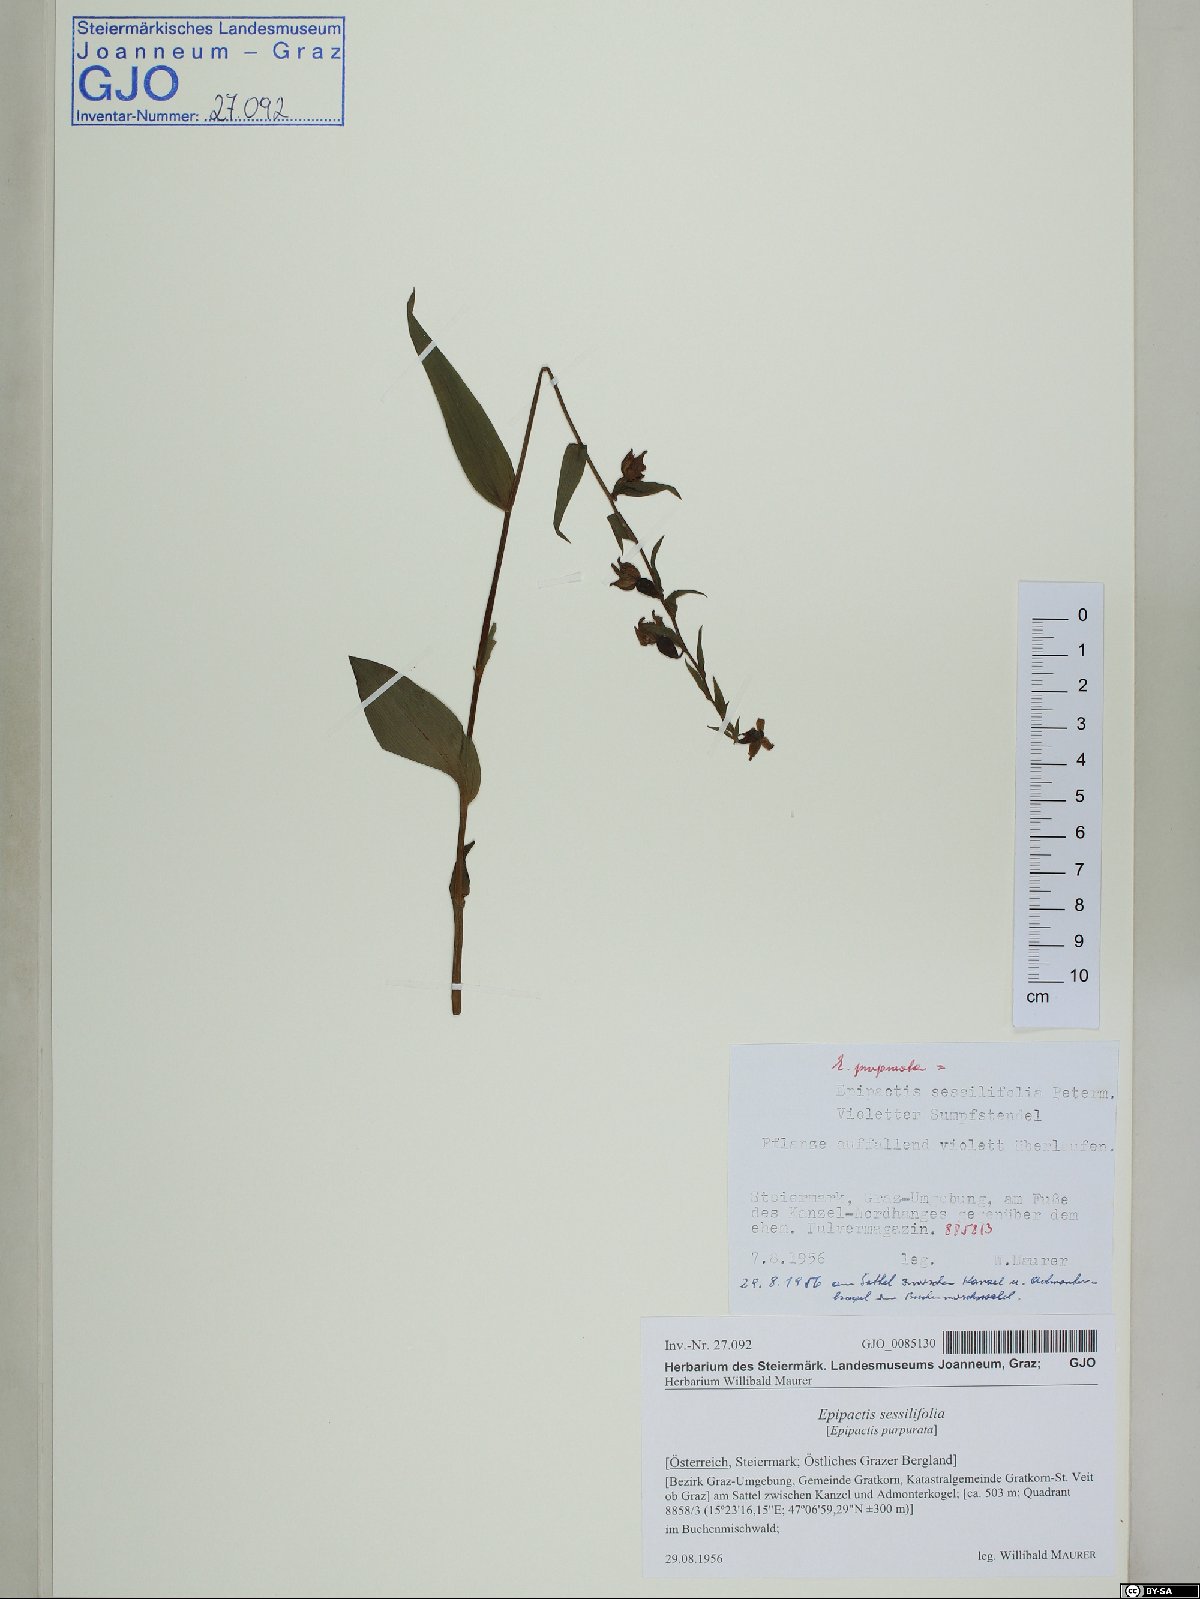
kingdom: Plantae
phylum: Tracheophyta
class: Liliopsida
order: Asparagales
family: Orchidaceae
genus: Epipactis
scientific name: Epipactis purpurata
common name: Violet helleborine
